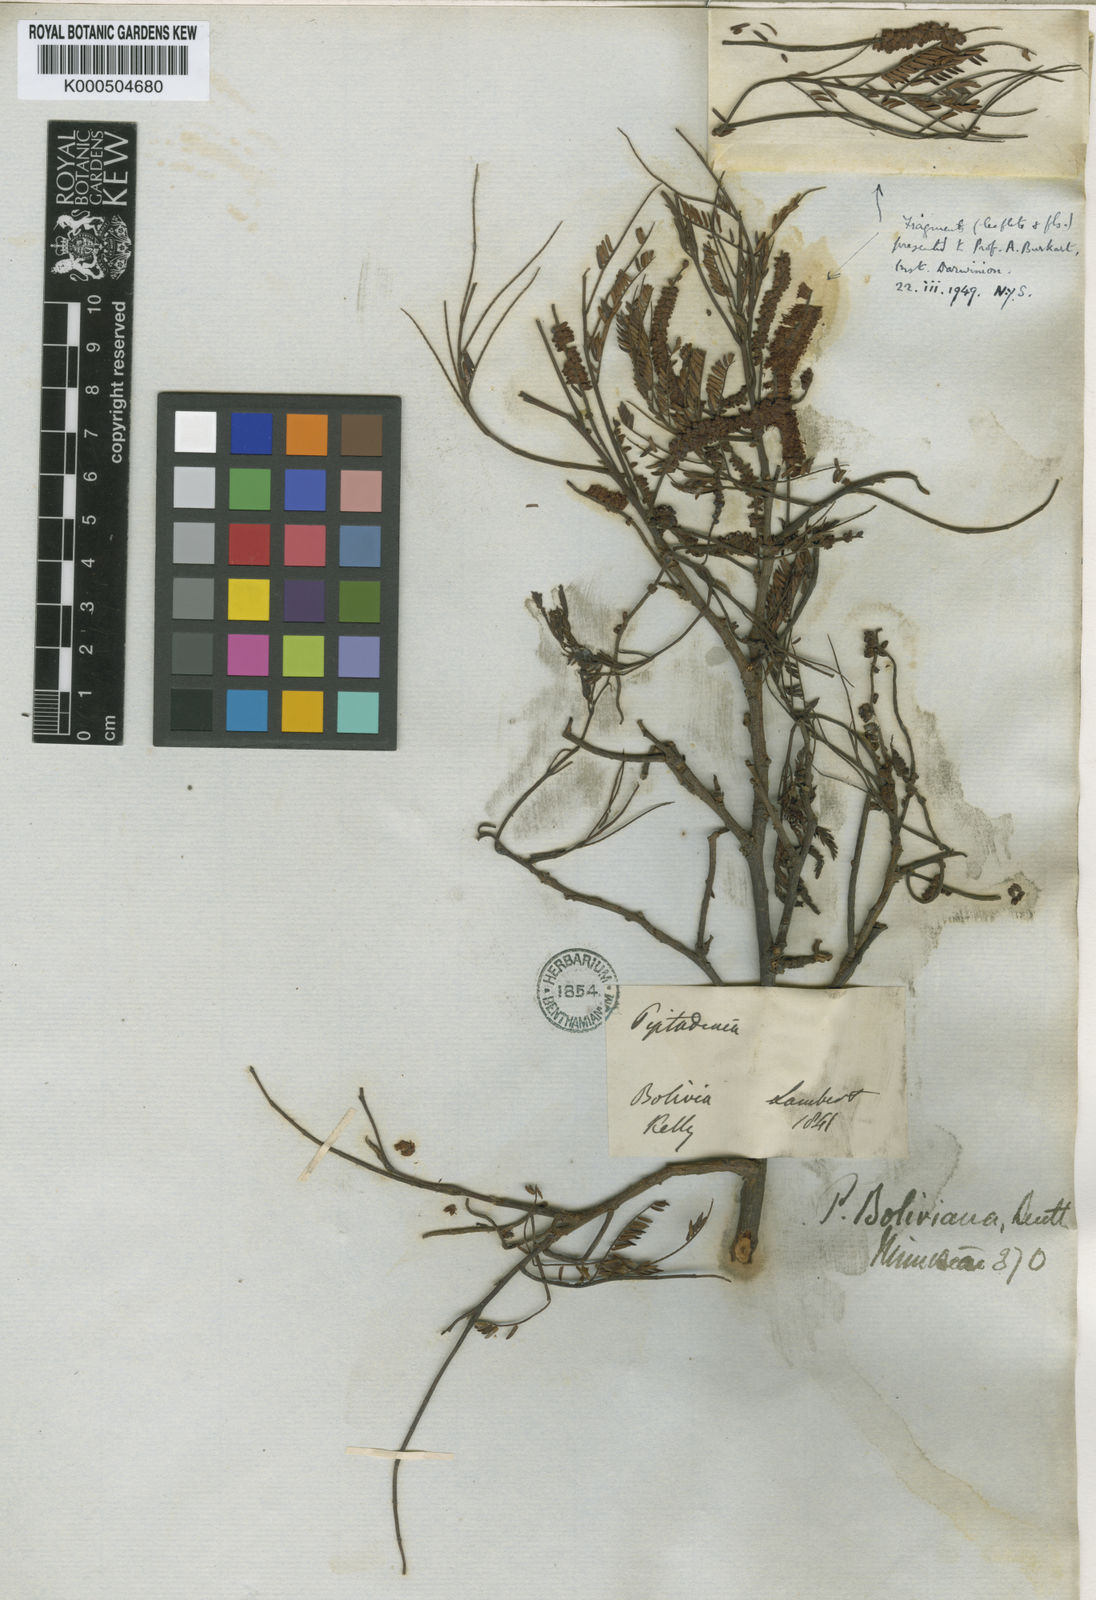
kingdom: Plantae
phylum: Tracheophyta
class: Magnoliopsida
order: Fabales
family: Fabaceae
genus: Parapiptadenia
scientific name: Parapiptadenia
